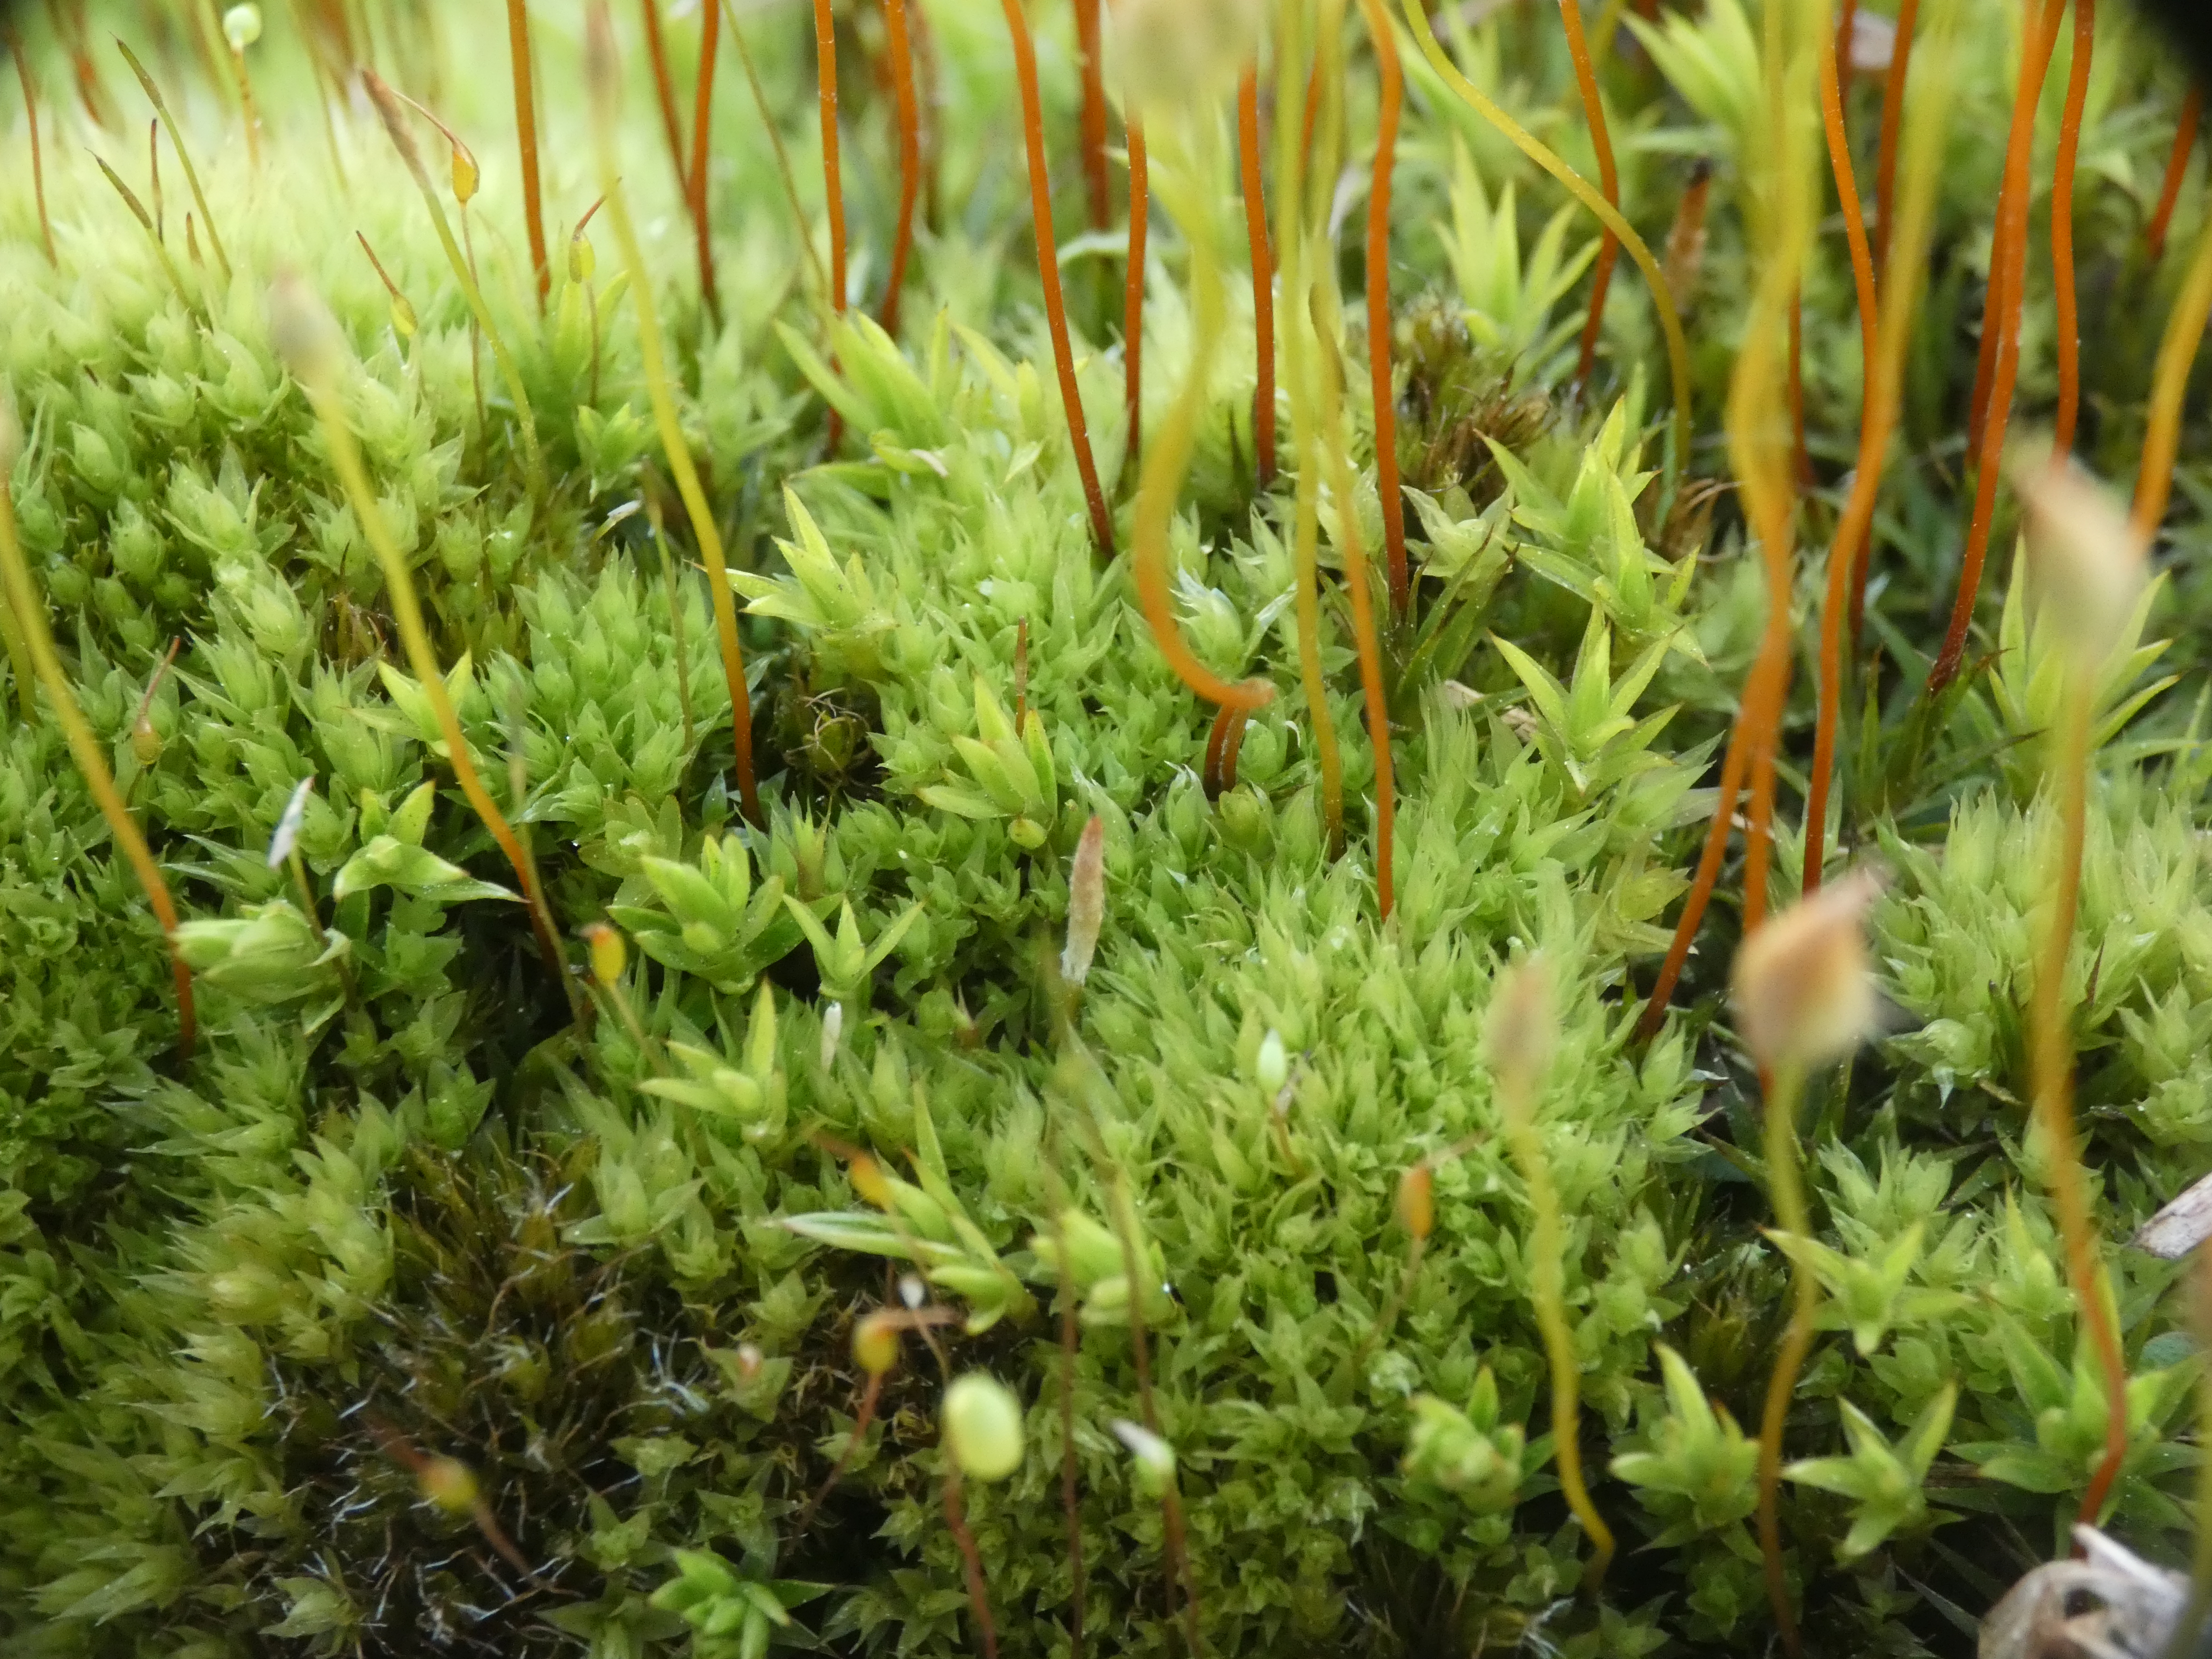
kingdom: Plantae
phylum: Bryophyta
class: Bryopsida
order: Bryales
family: Mniaceae
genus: Pohlia
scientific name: Pohlia nutans
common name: Almindelig nikkemos
